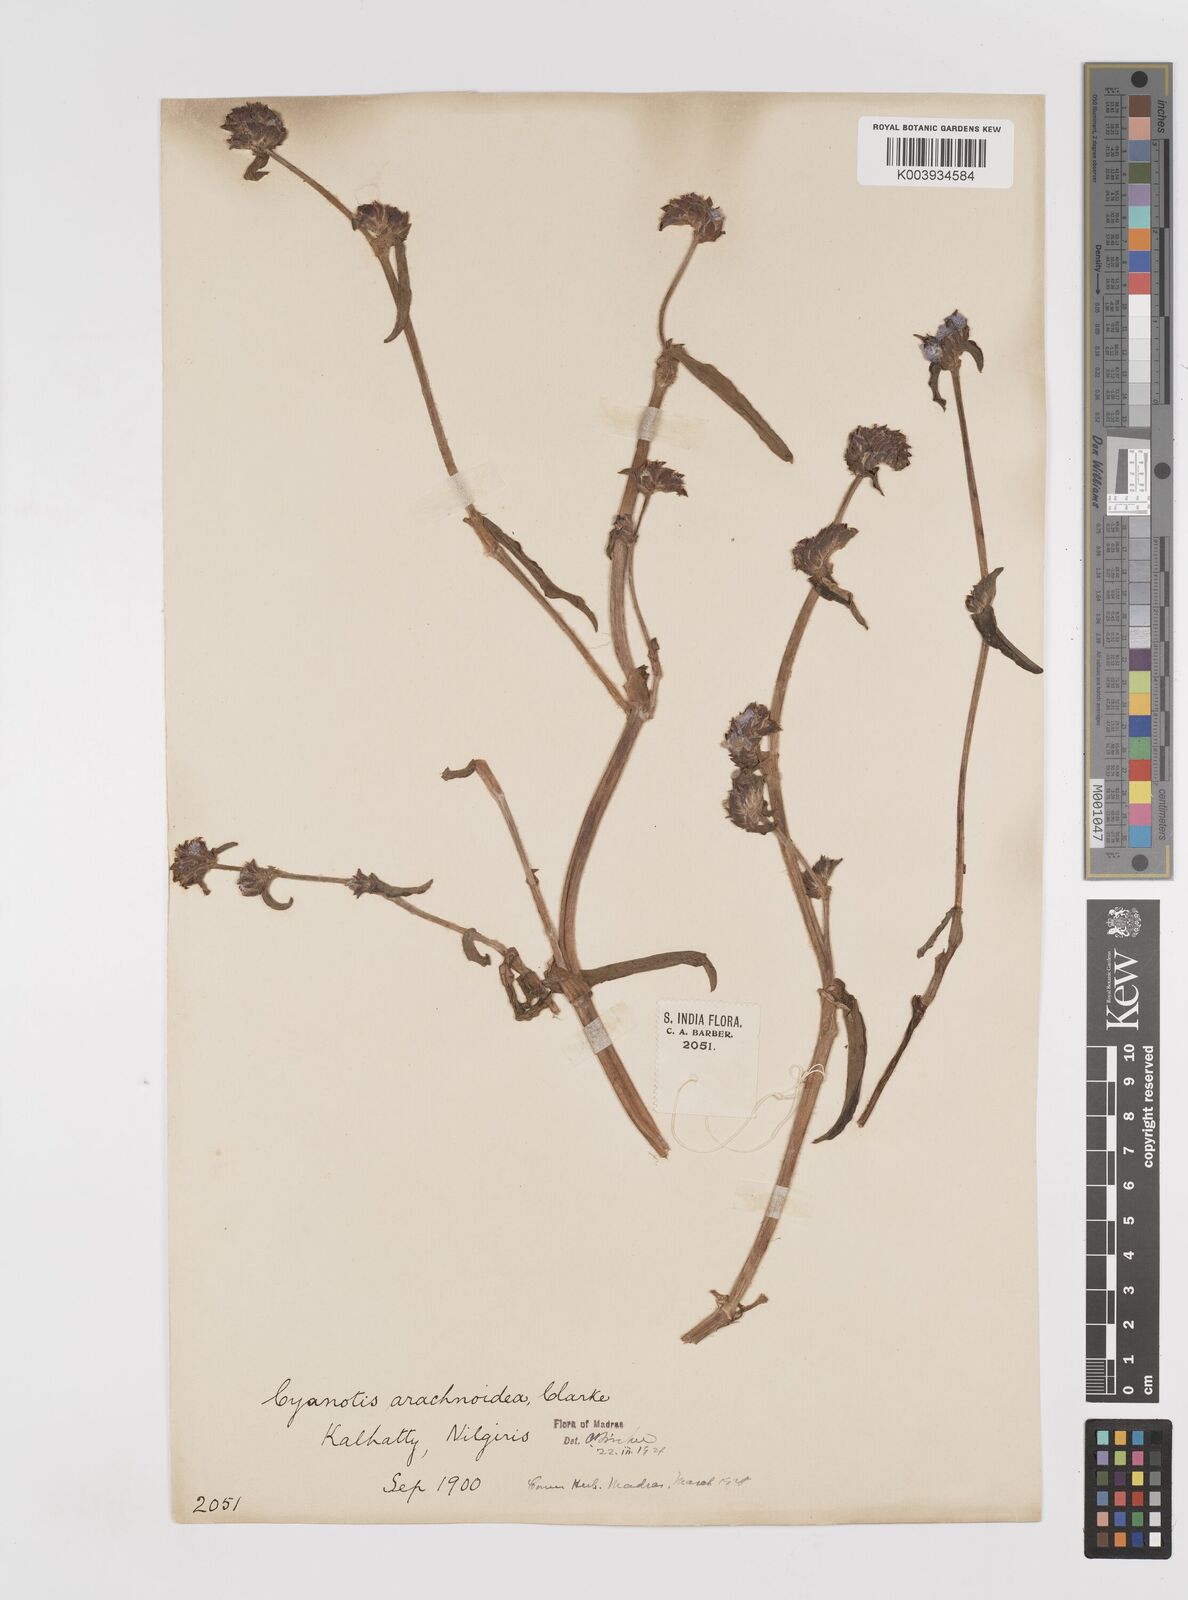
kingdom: Plantae
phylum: Tracheophyta
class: Liliopsida
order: Commelinales
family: Commelinaceae
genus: Cyanotis
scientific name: Cyanotis arachnoidea
